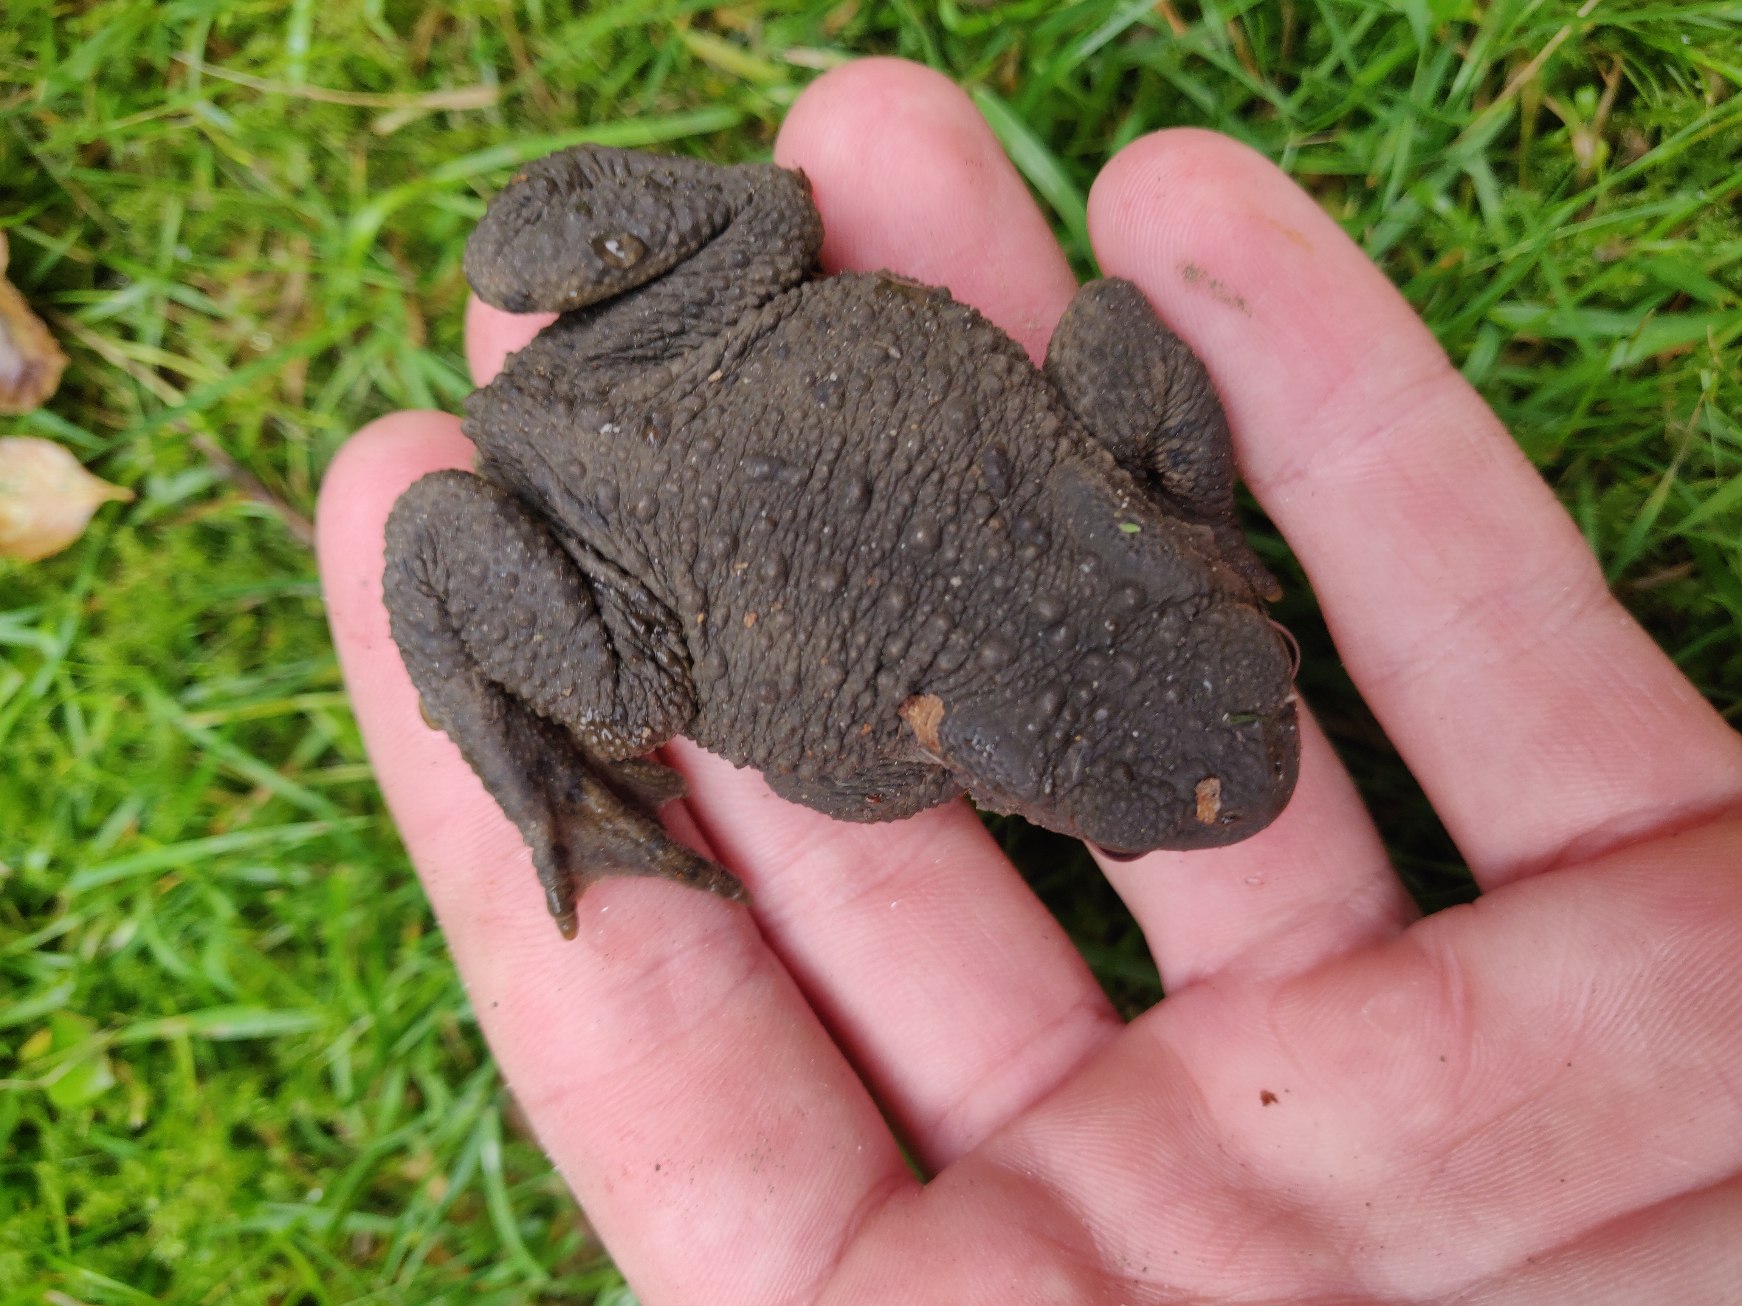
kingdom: Animalia
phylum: Chordata
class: Amphibia
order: Anura
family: Bufonidae
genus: Bufo
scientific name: Bufo bufo
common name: Skrubtudse
